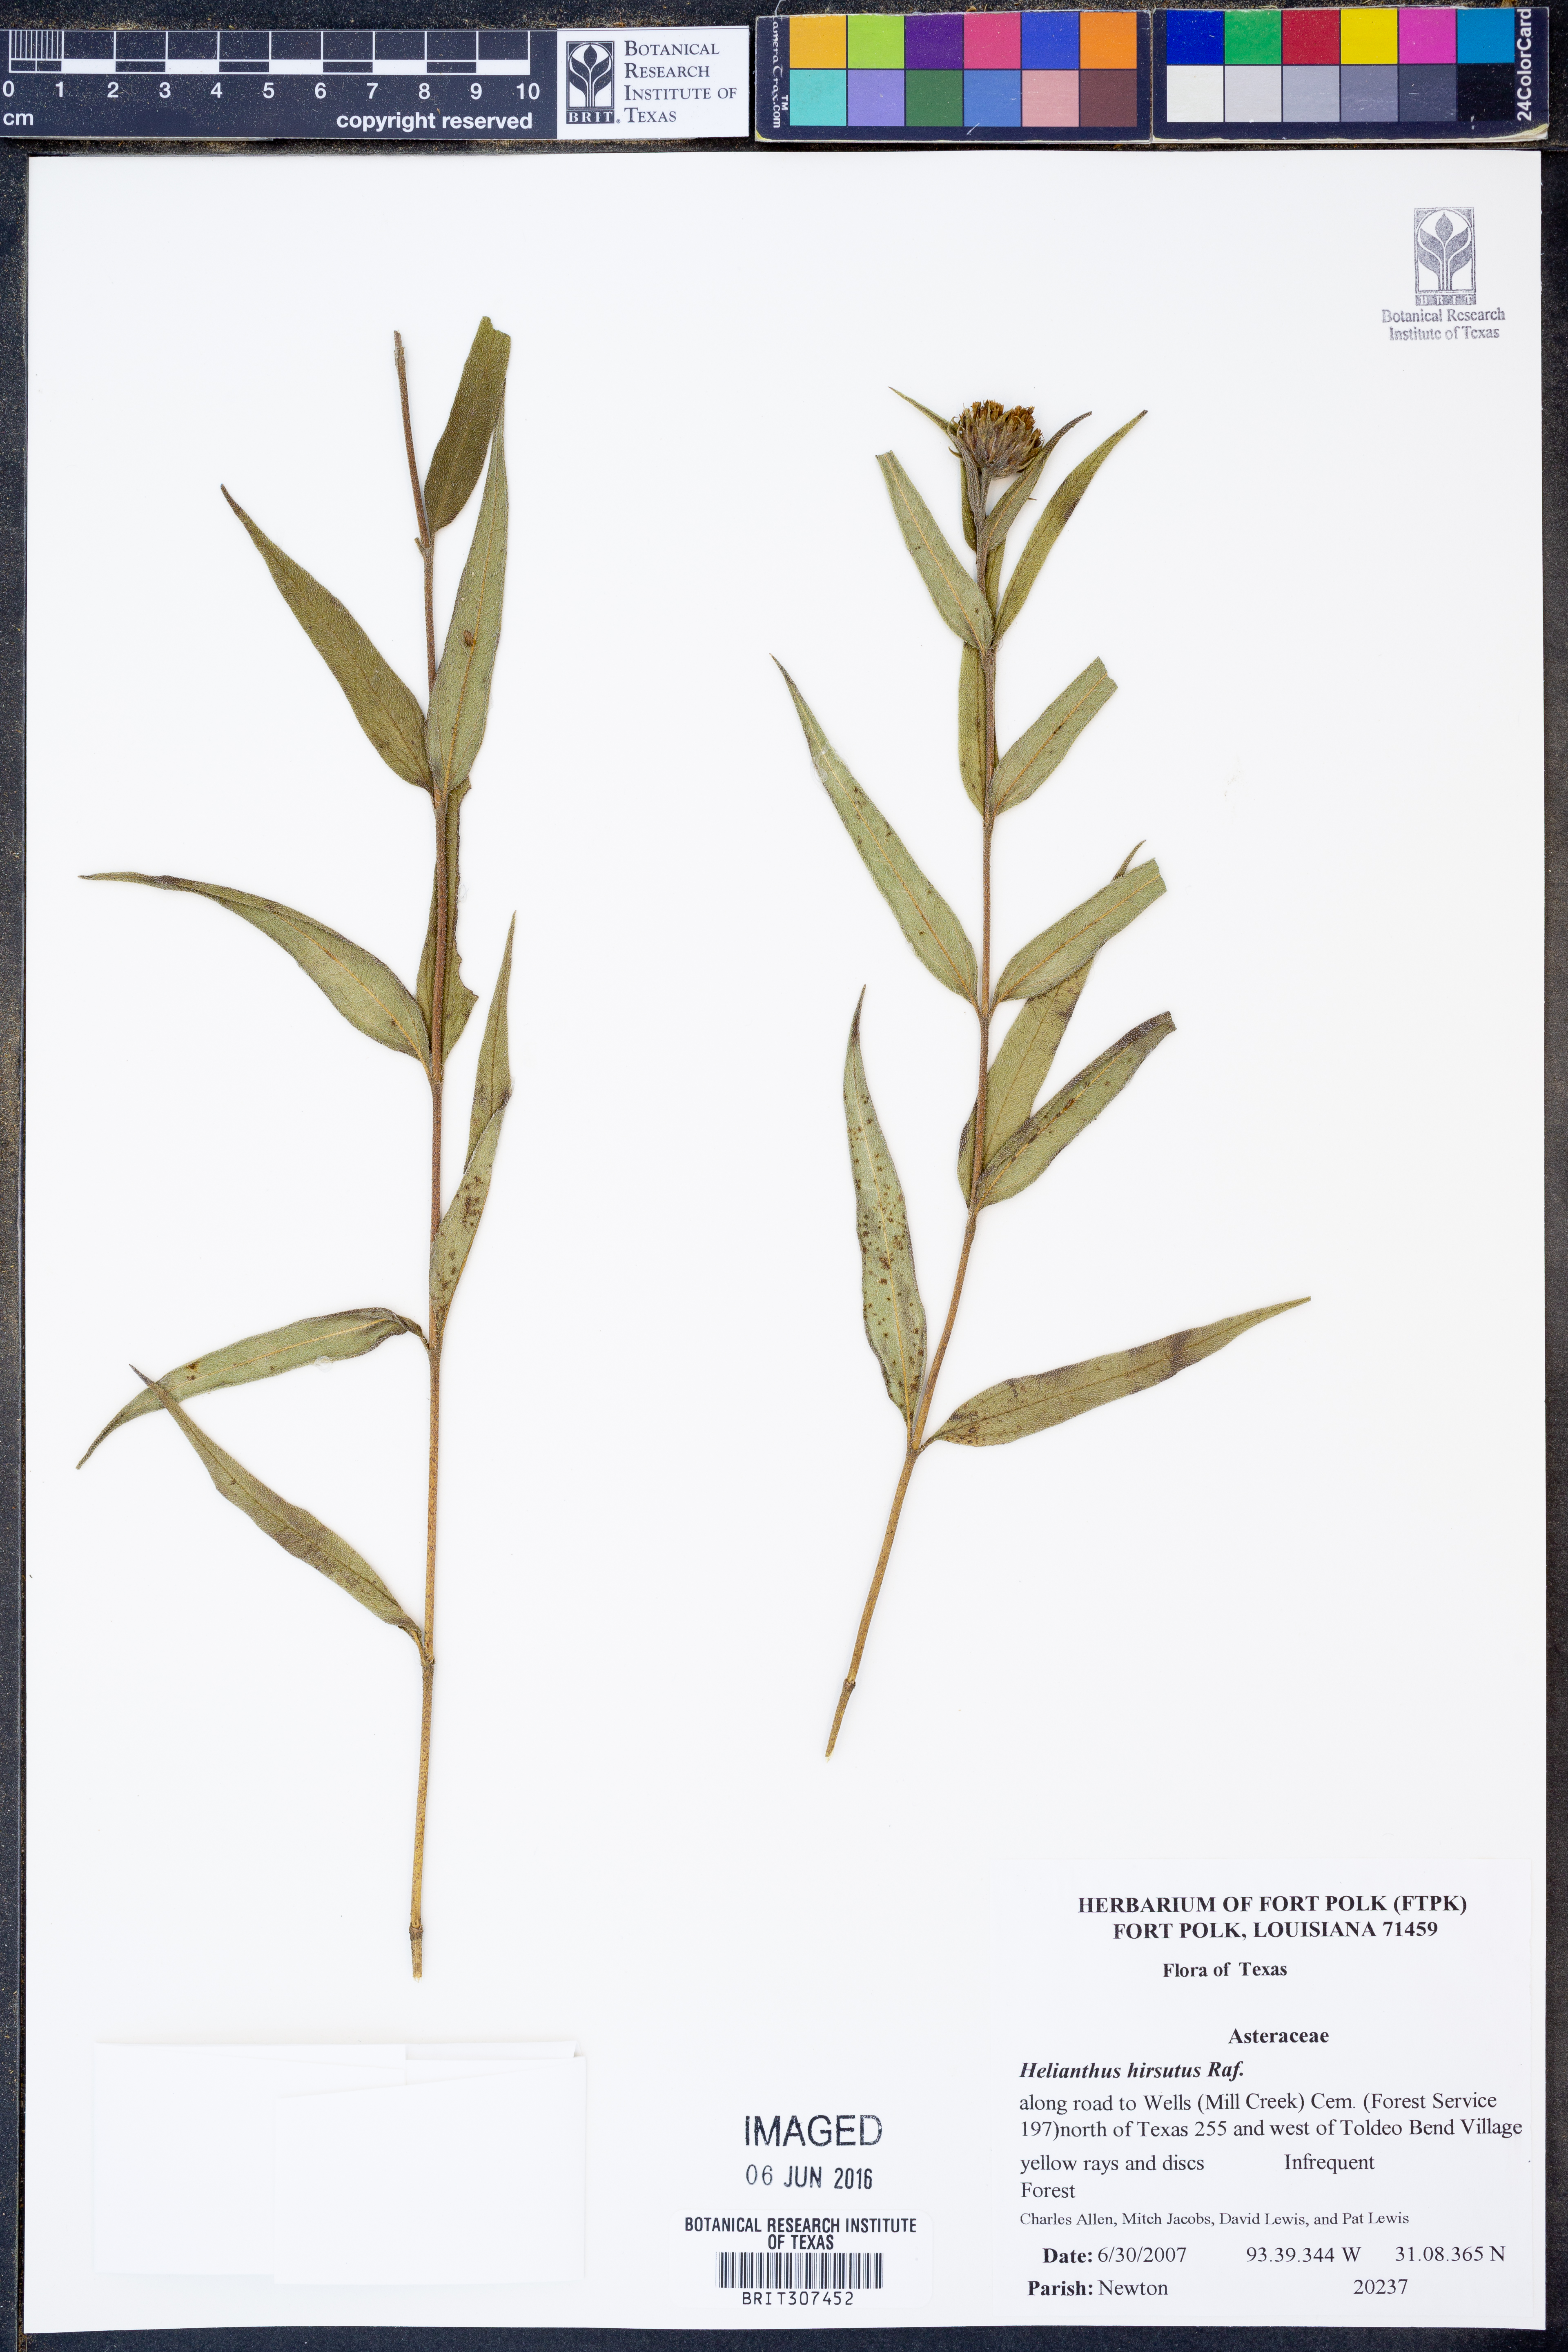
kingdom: Plantae
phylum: Tracheophyta
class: Magnoliopsida
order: Asterales
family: Asteraceae
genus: Helianthus
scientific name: Helianthus hirsutus
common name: Hairy sunflower
